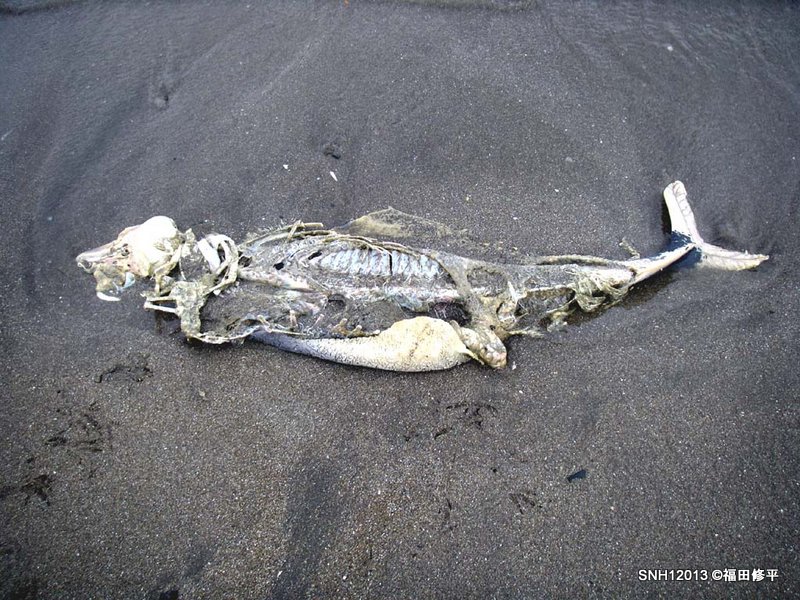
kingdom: Animalia
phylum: Chordata
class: Mammalia
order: Cetacea
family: Phocoenidae
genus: Phocoena
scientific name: Phocoena phocoena
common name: Harbour porpoise
